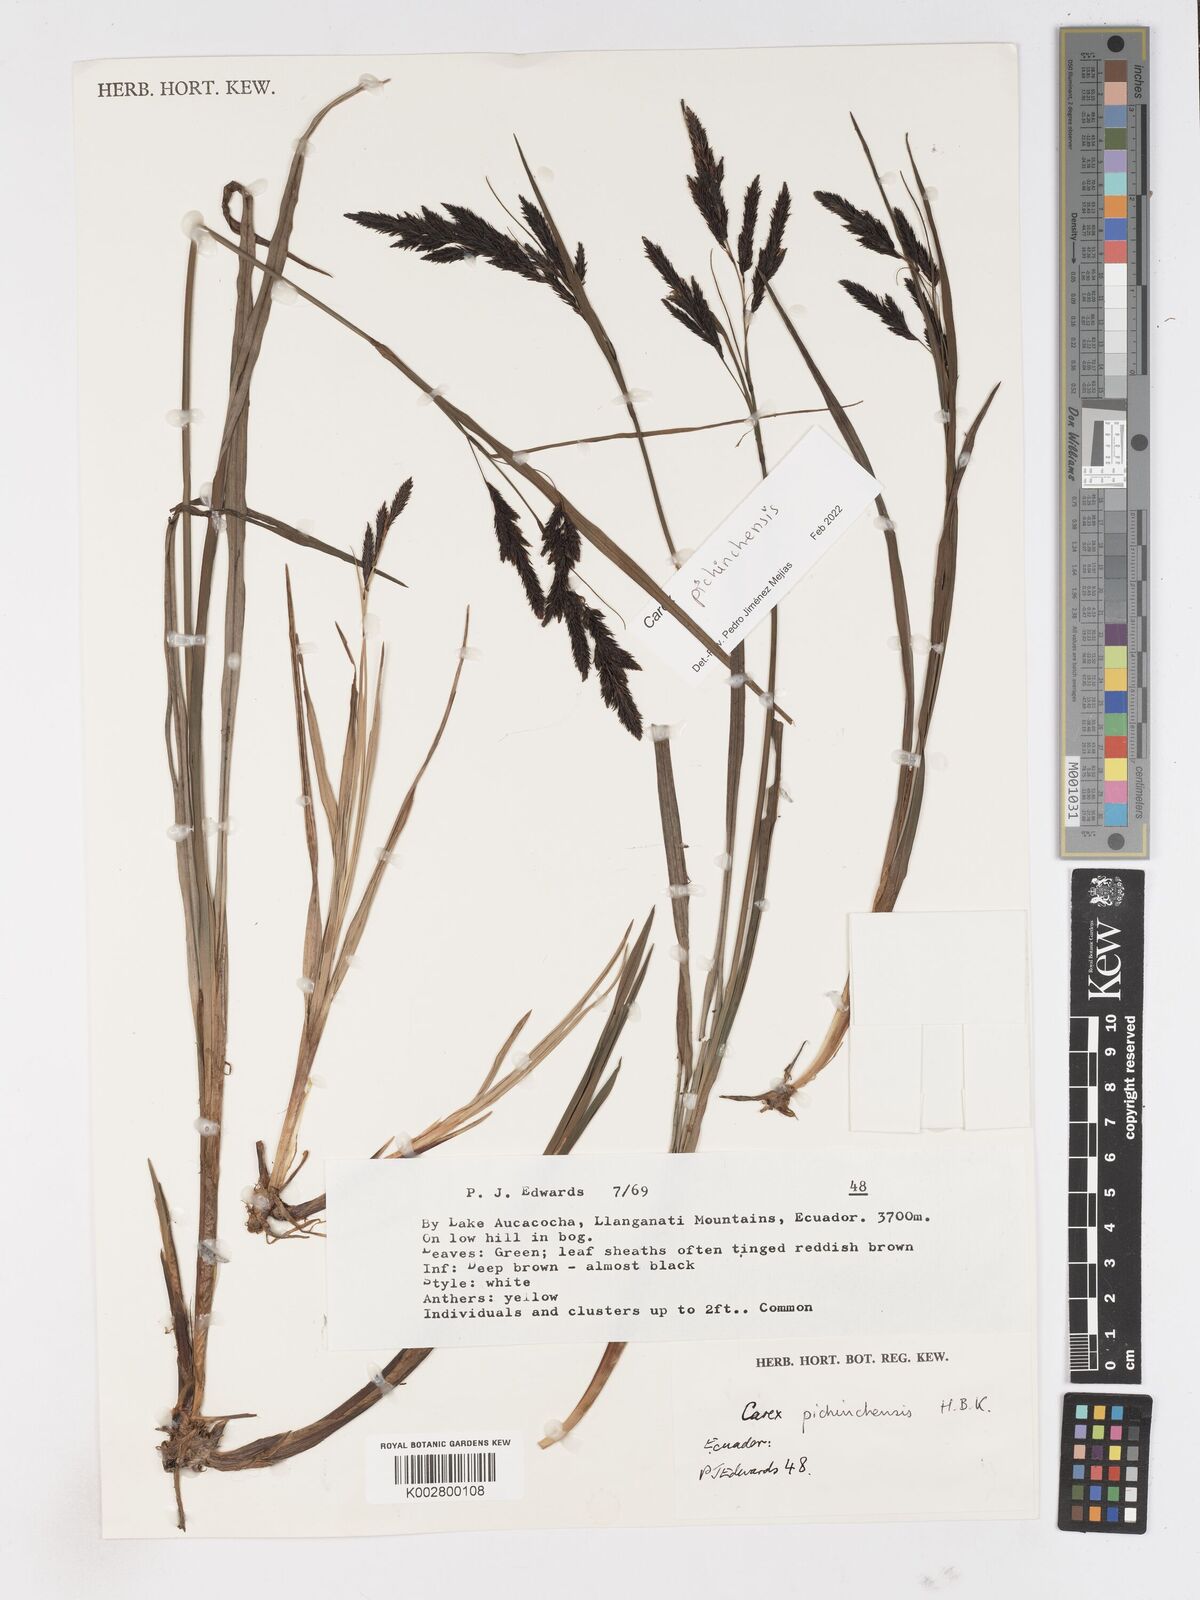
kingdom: Plantae
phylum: Tracheophyta
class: Liliopsida
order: Poales
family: Cyperaceae
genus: Carex
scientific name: Carex pichinchensis
